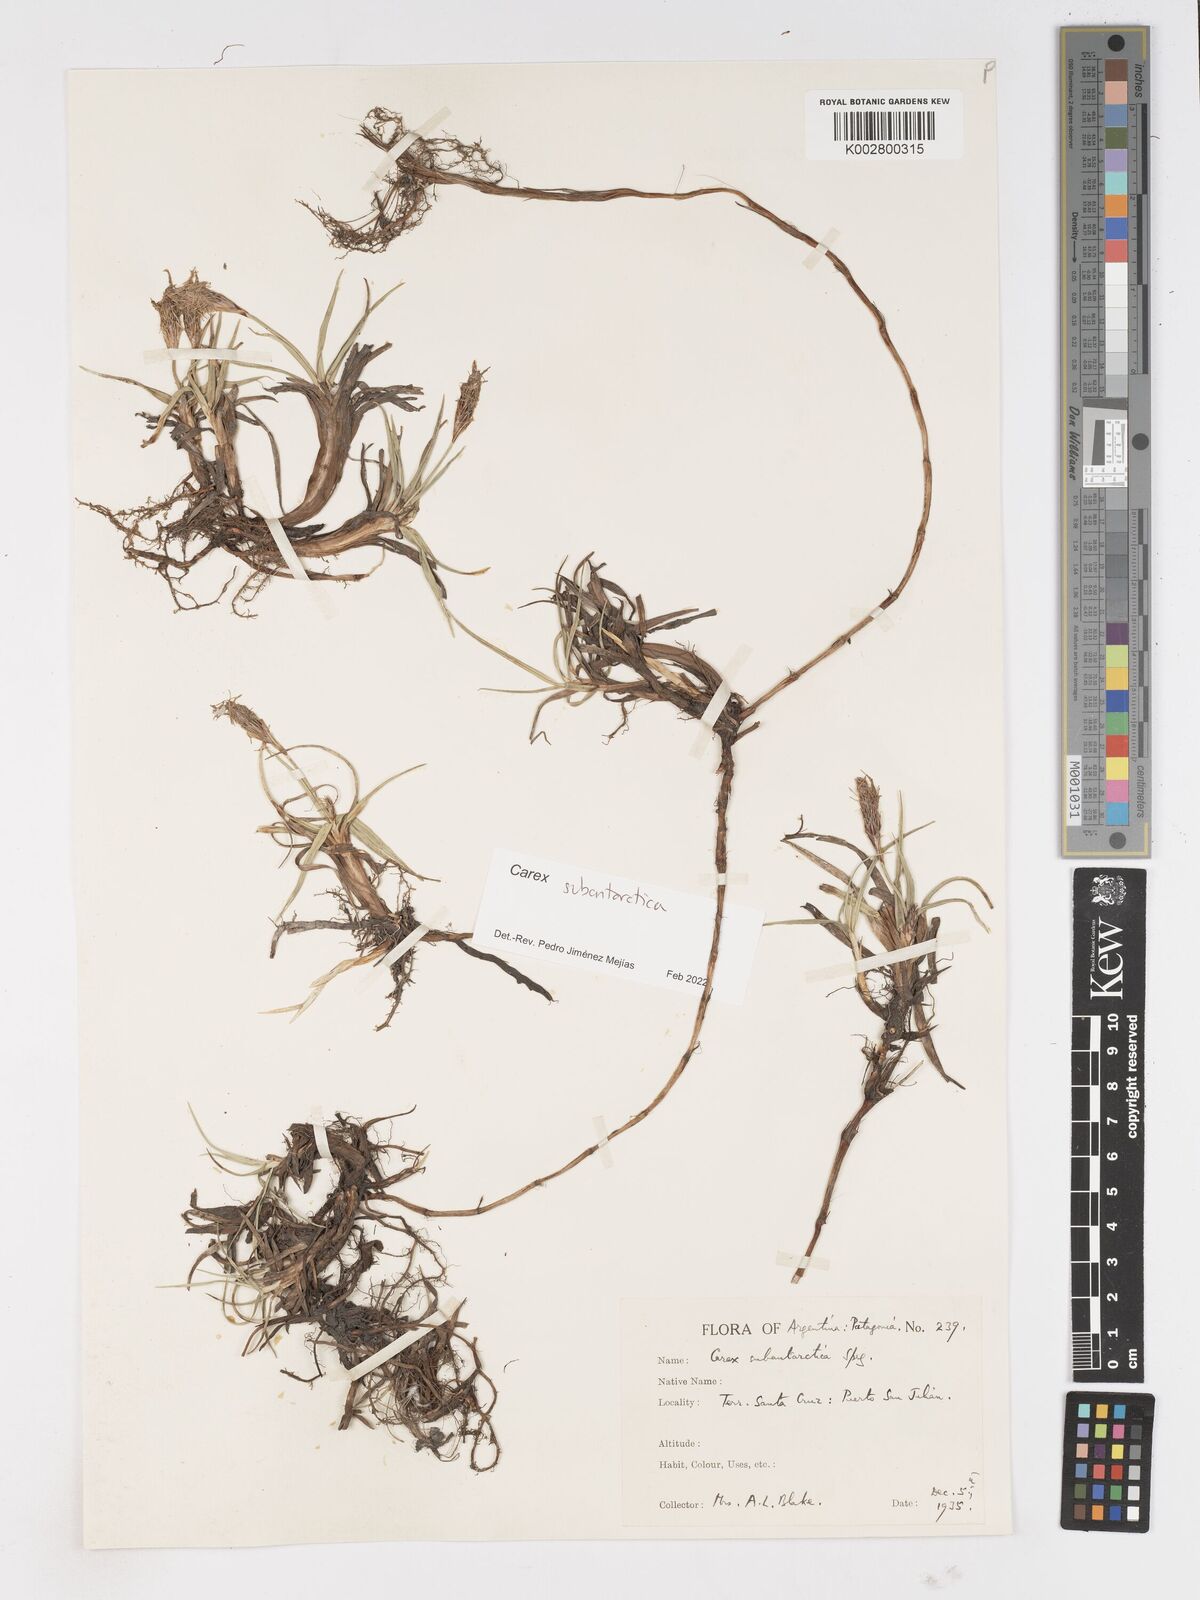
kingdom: Plantae
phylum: Tracheophyta
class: Liliopsida
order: Poales
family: Cyperaceae
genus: Carex
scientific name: Carex subantarctica
